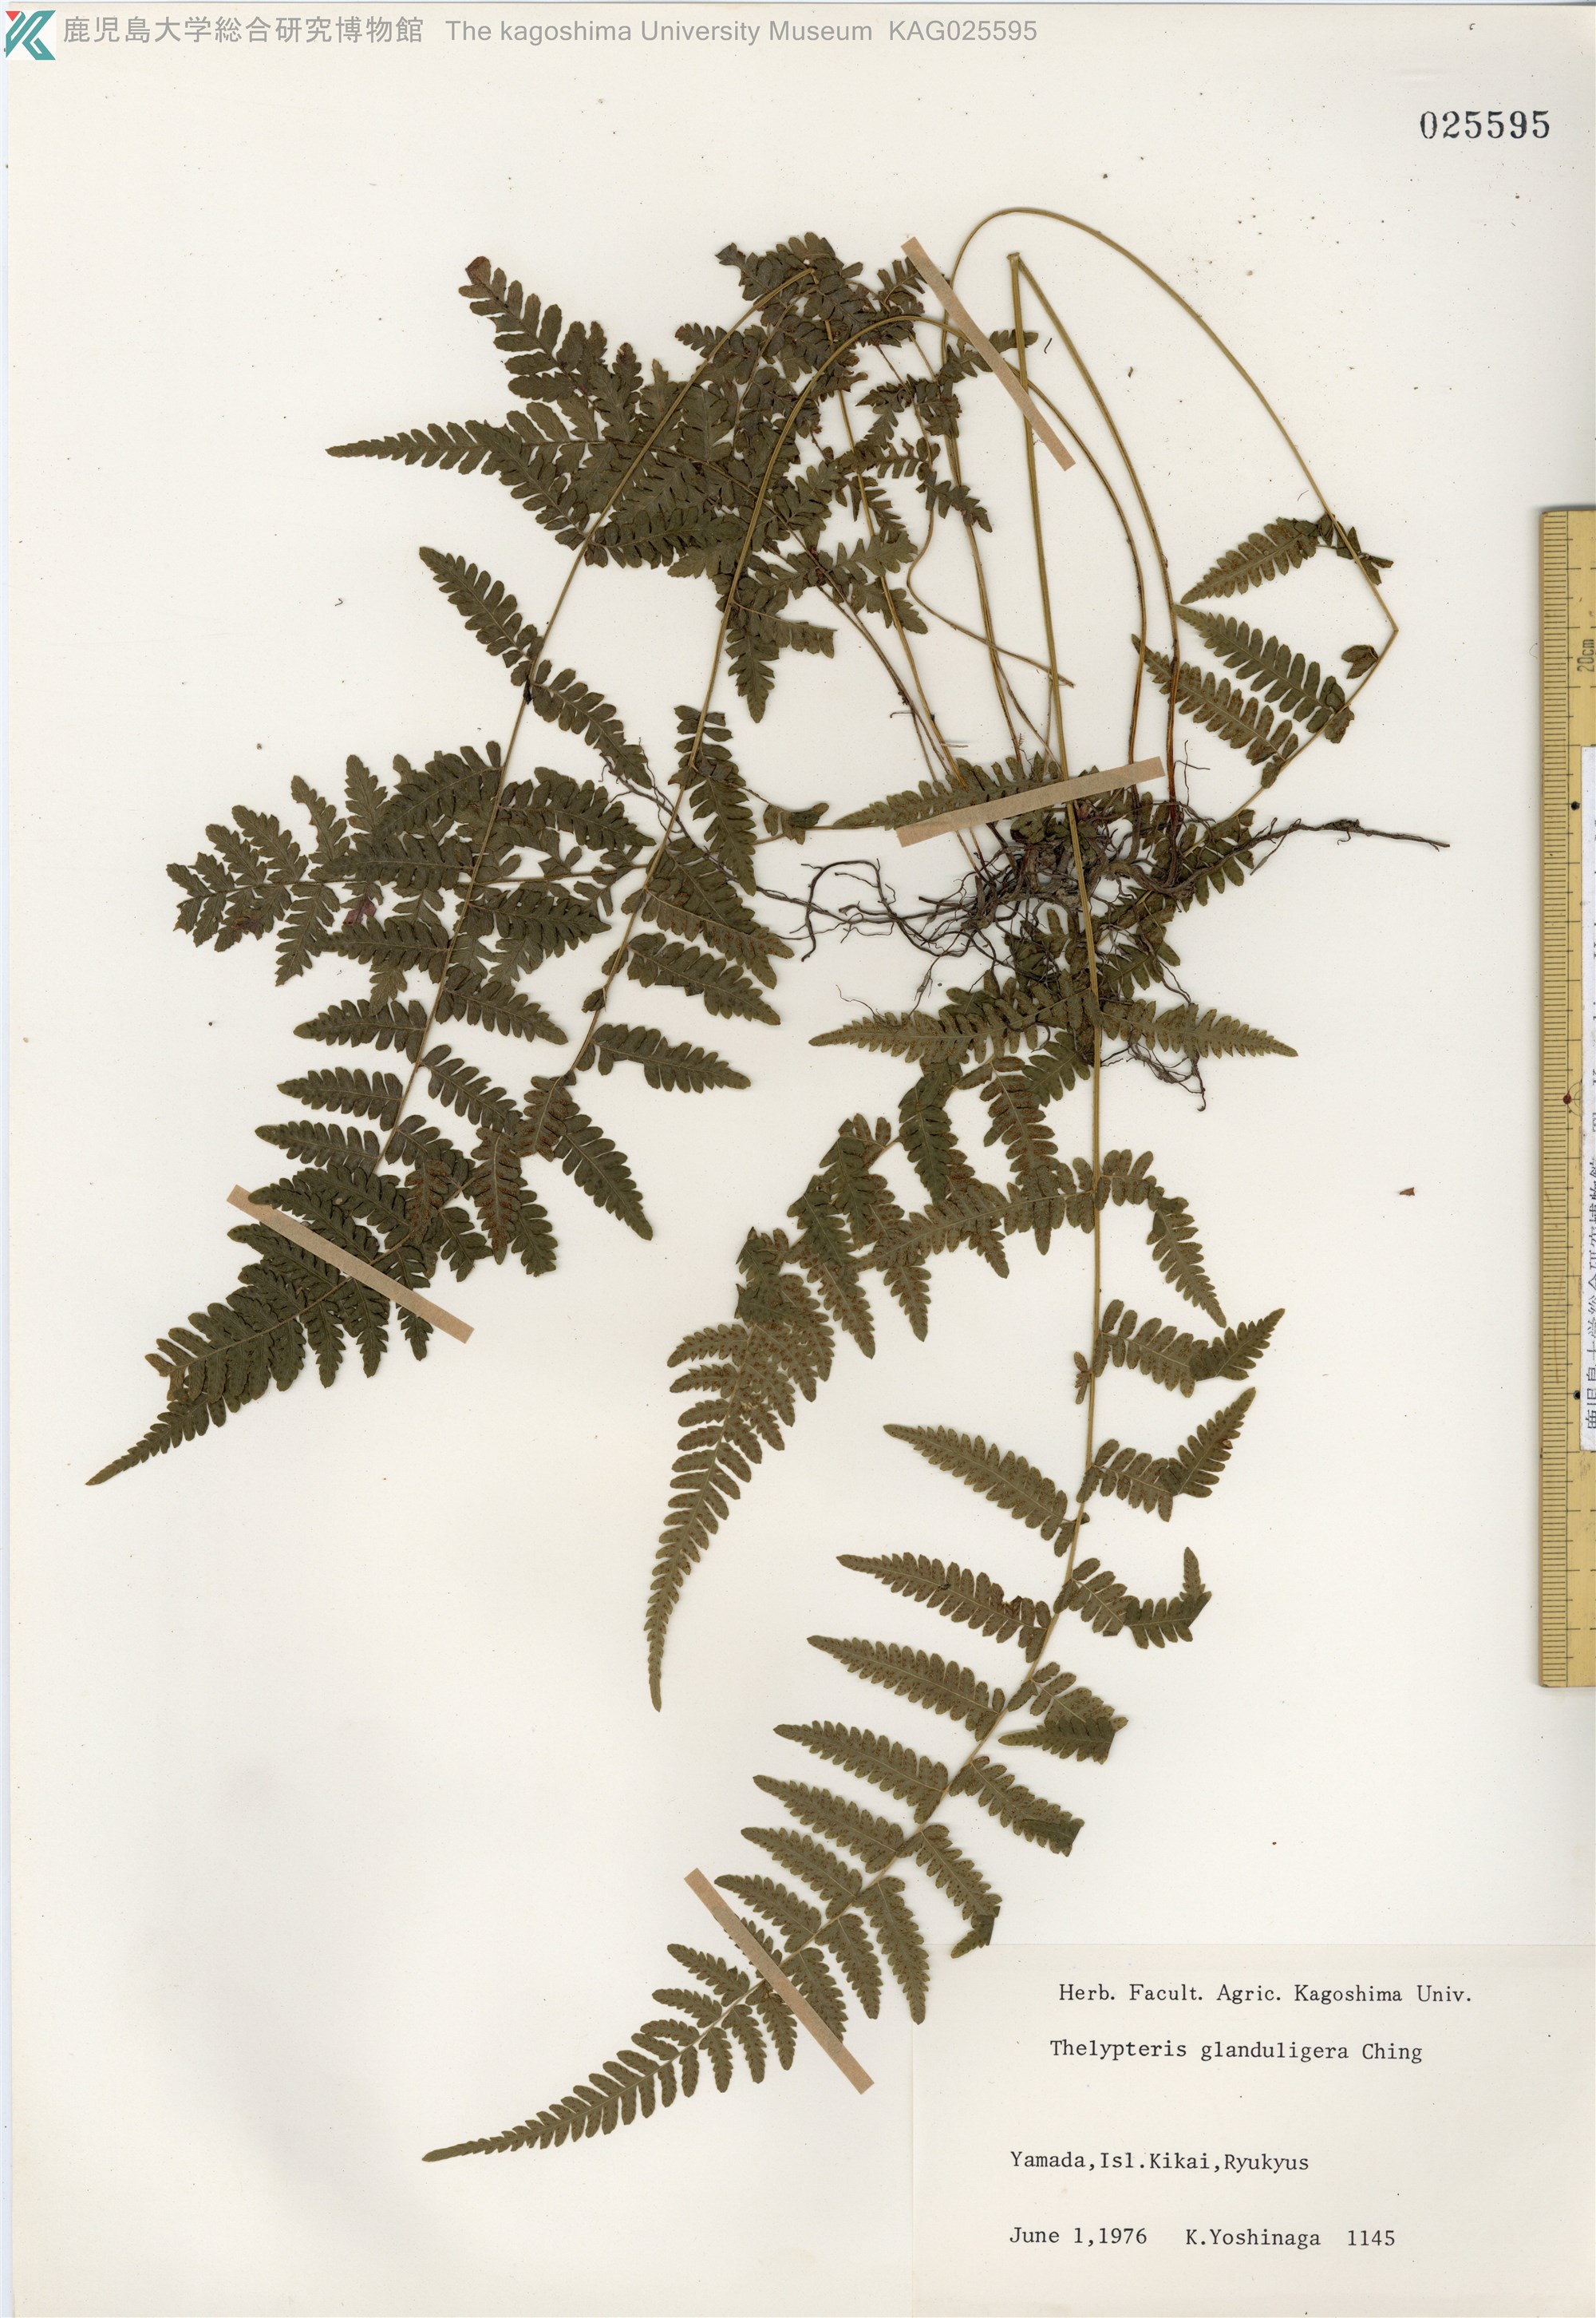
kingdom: Plantae
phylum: Tracheophyta
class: Polypodiopsida
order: Polypodiales
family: Thelypteridaceae
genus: Amauropelta
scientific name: Amauropelta glanduligera
